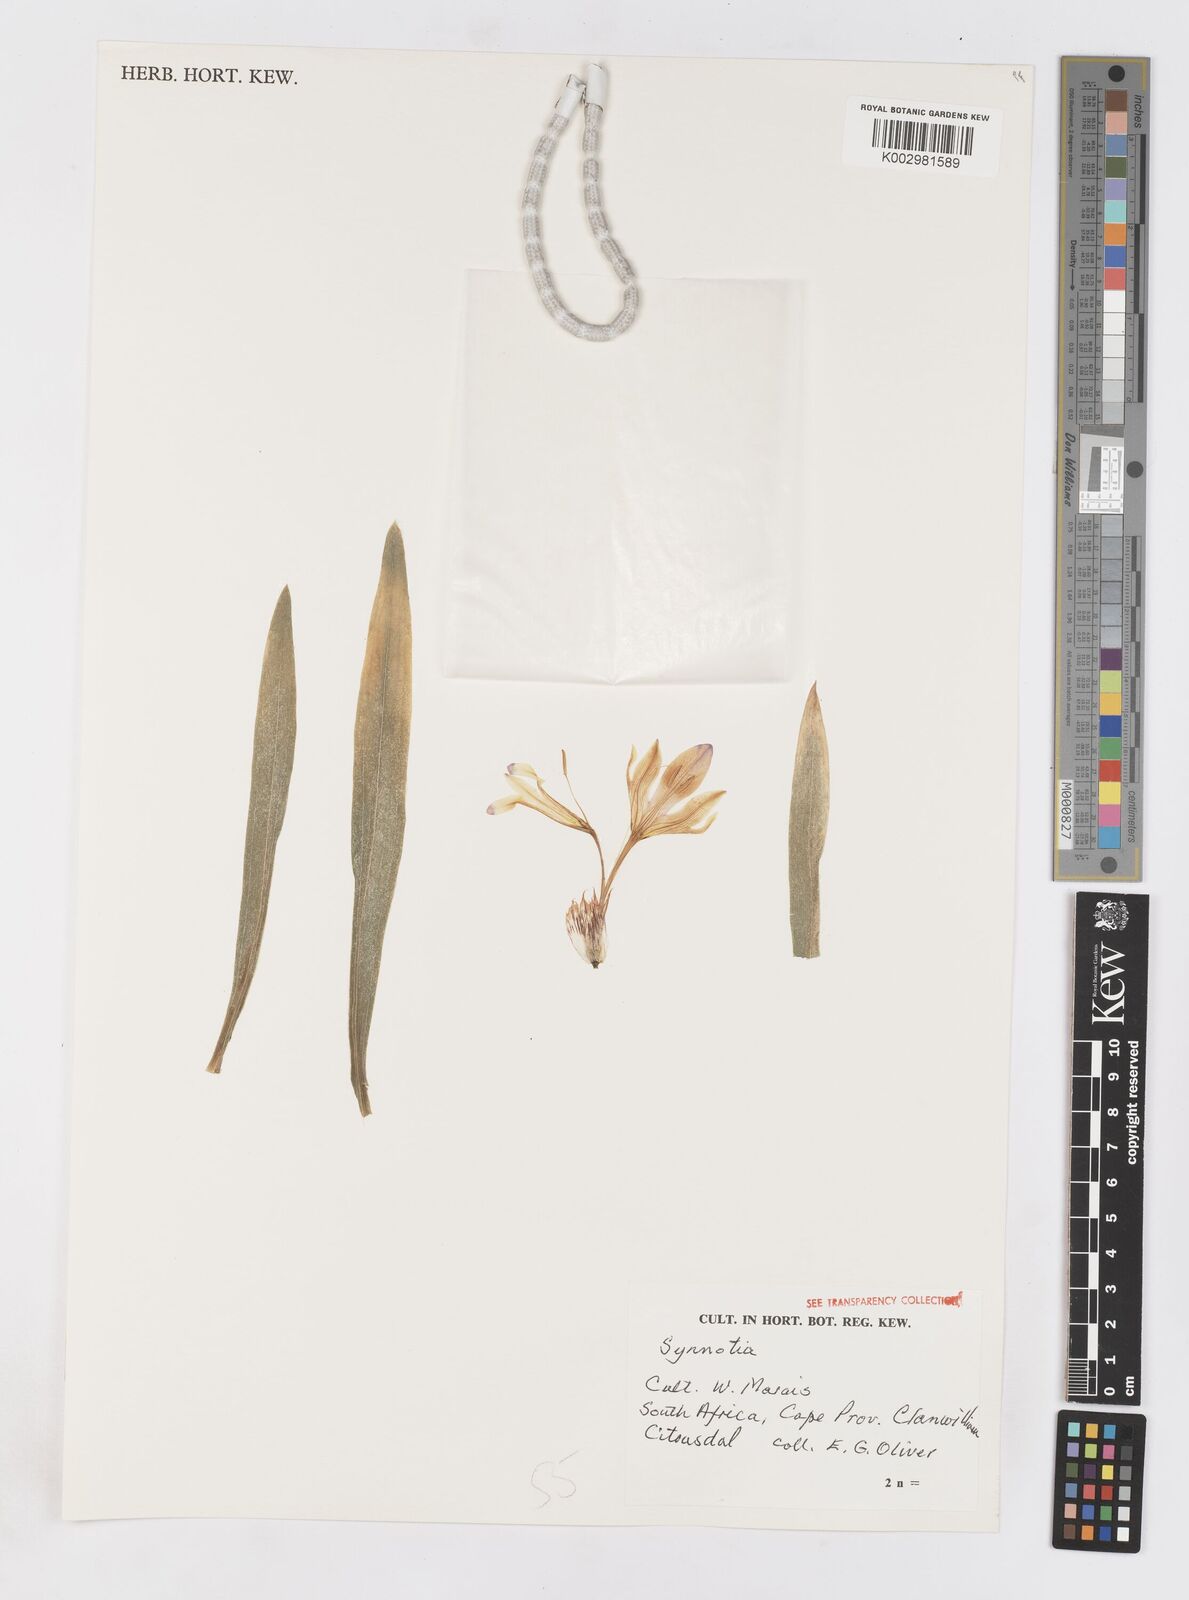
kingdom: Plantae
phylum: Tracheophyta
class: Liliopsida
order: Asparagales
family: Iridaceae
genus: Sparaxis
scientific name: Sparaxis
